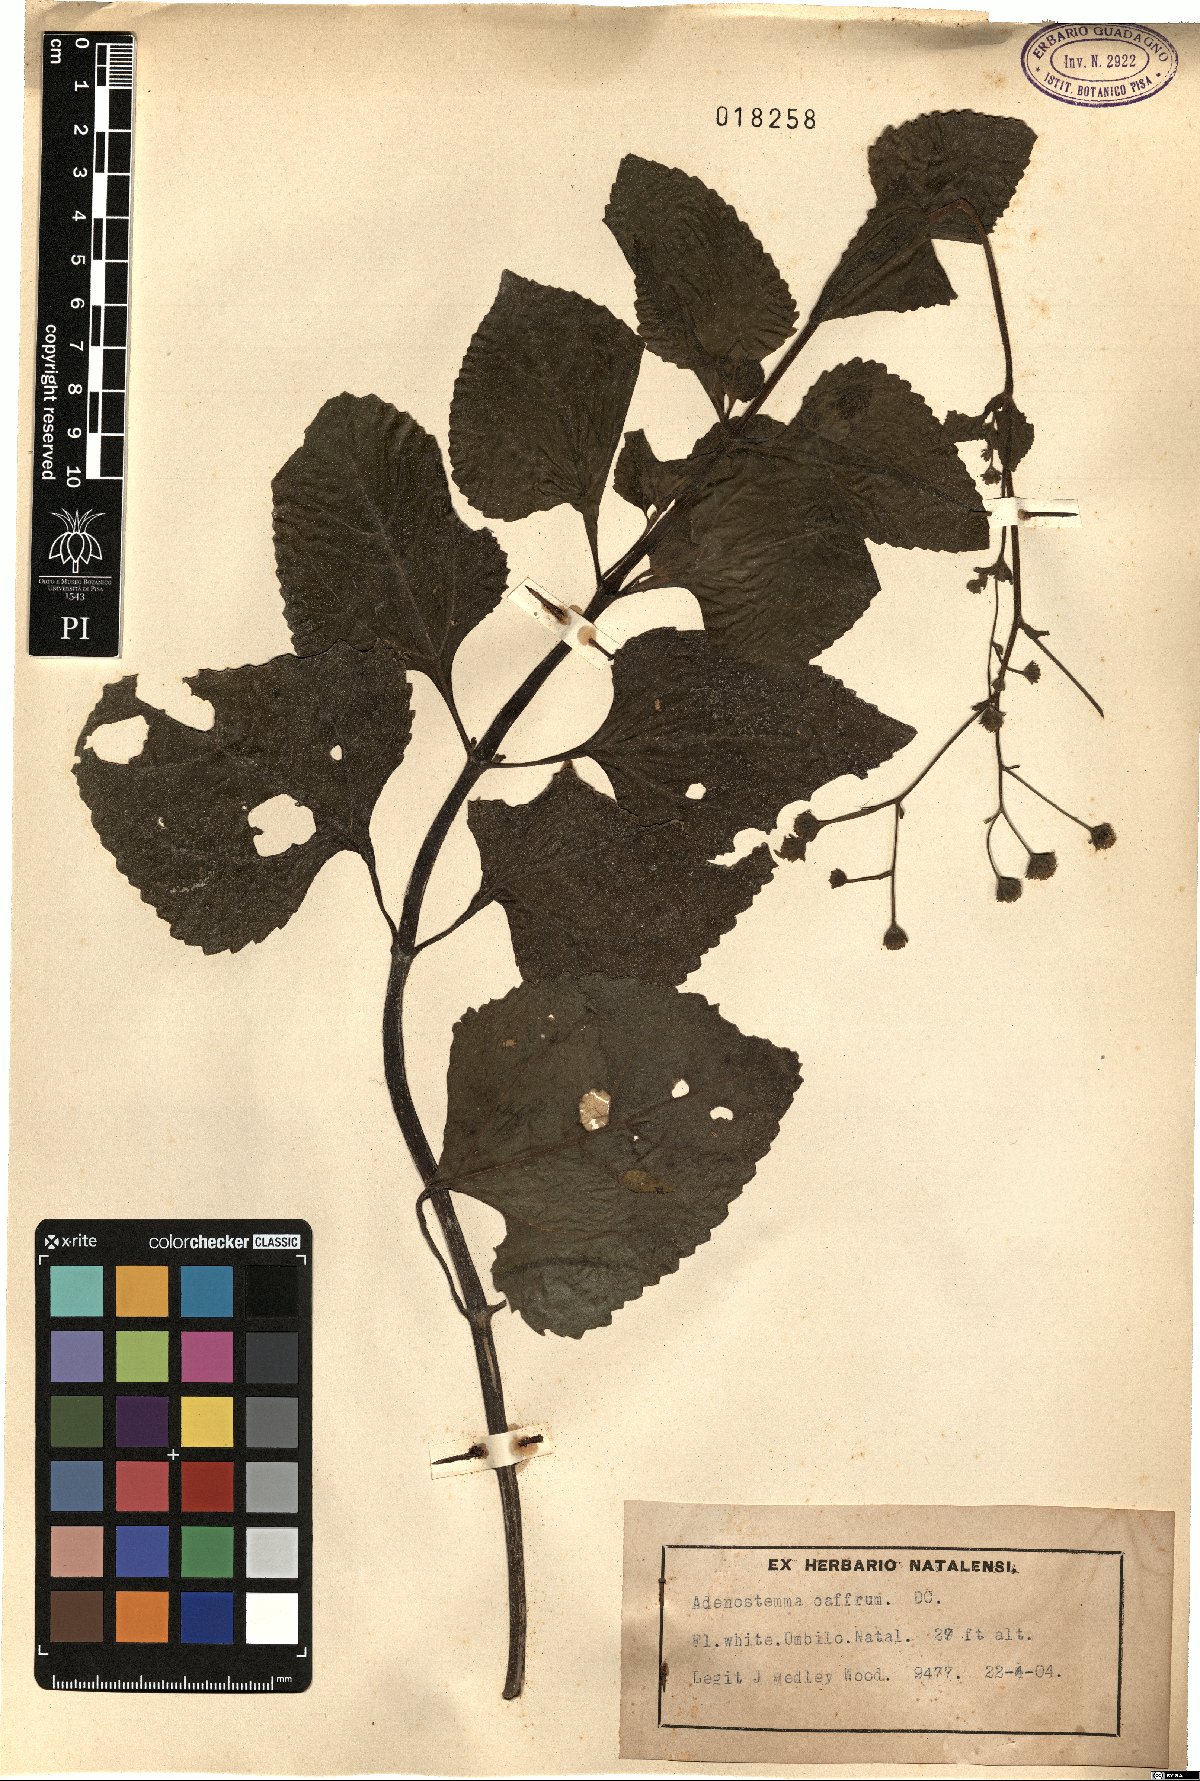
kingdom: Plantae
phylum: Tracheophyta
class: Magnoliopsida
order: Asterales
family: Asteraceae
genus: Adenostemma
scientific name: Adenostemma caffrum
